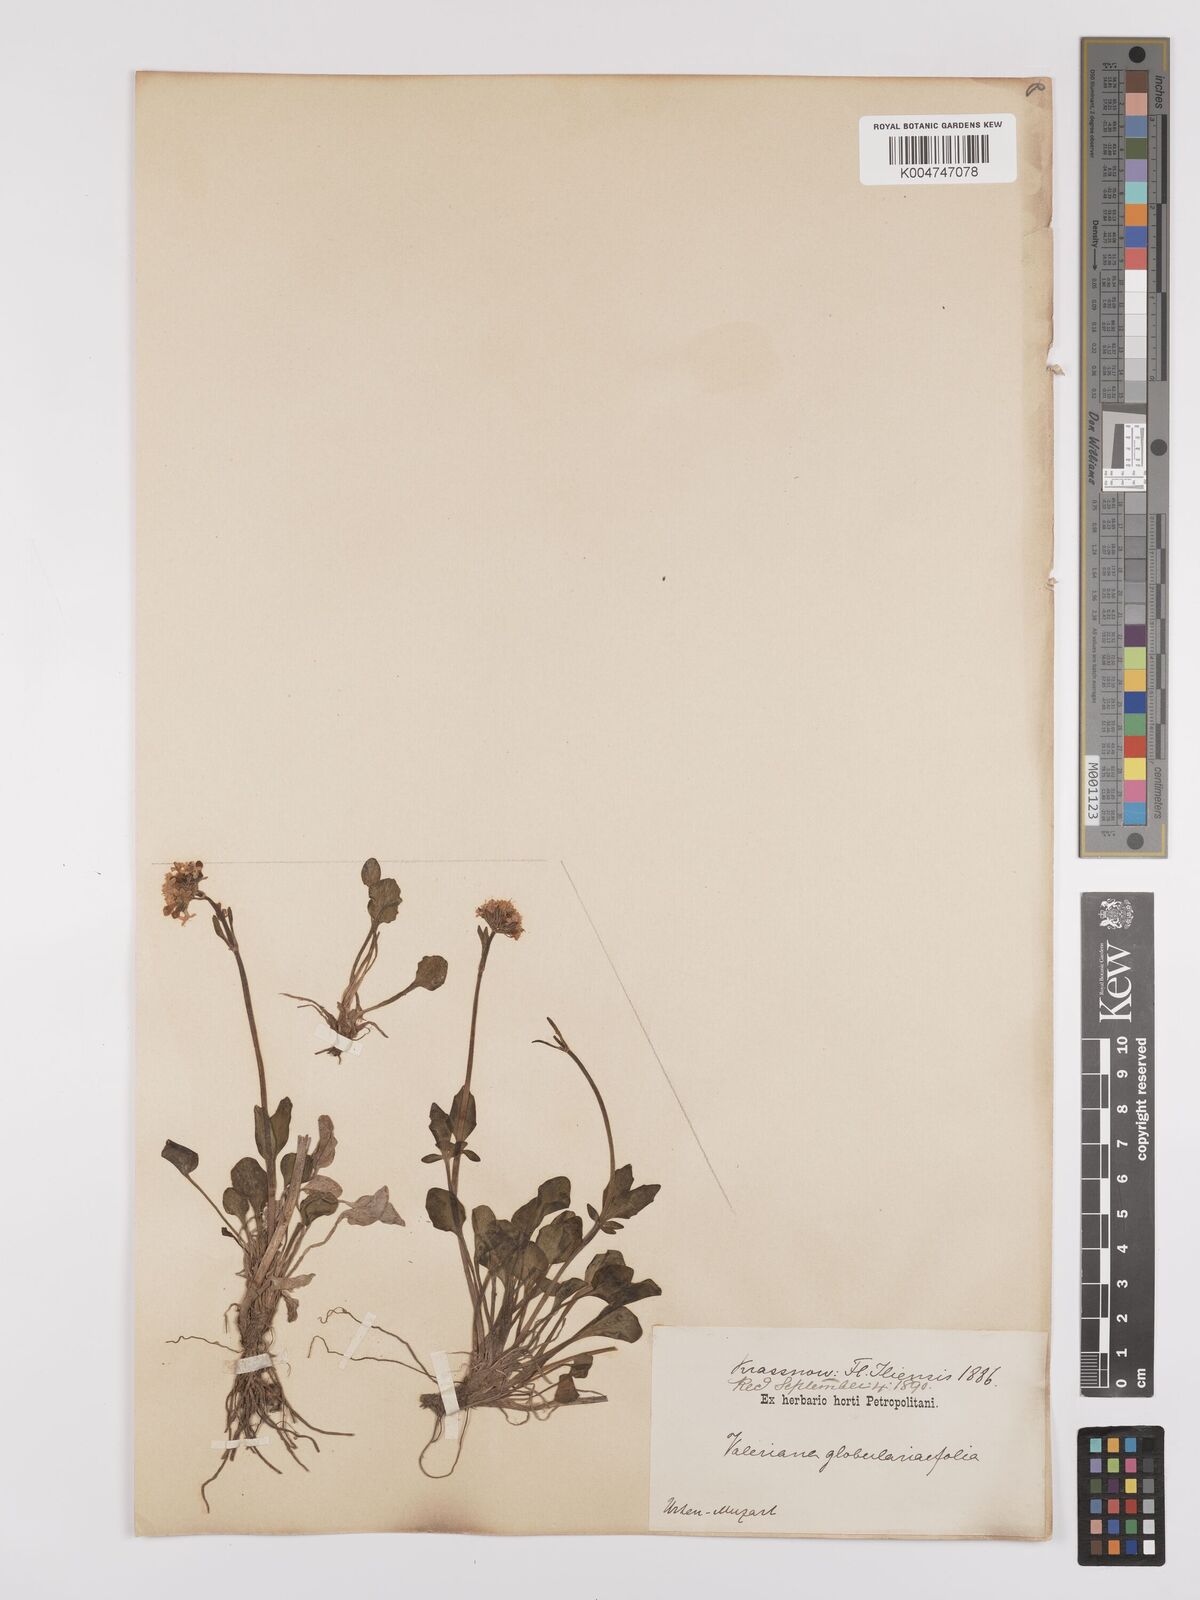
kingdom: Plantae
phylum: Tracheophyta
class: Magnoliopsida
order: Dipsacales
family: Caprifoliaceae
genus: Valeriana
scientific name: Valeriana apula
